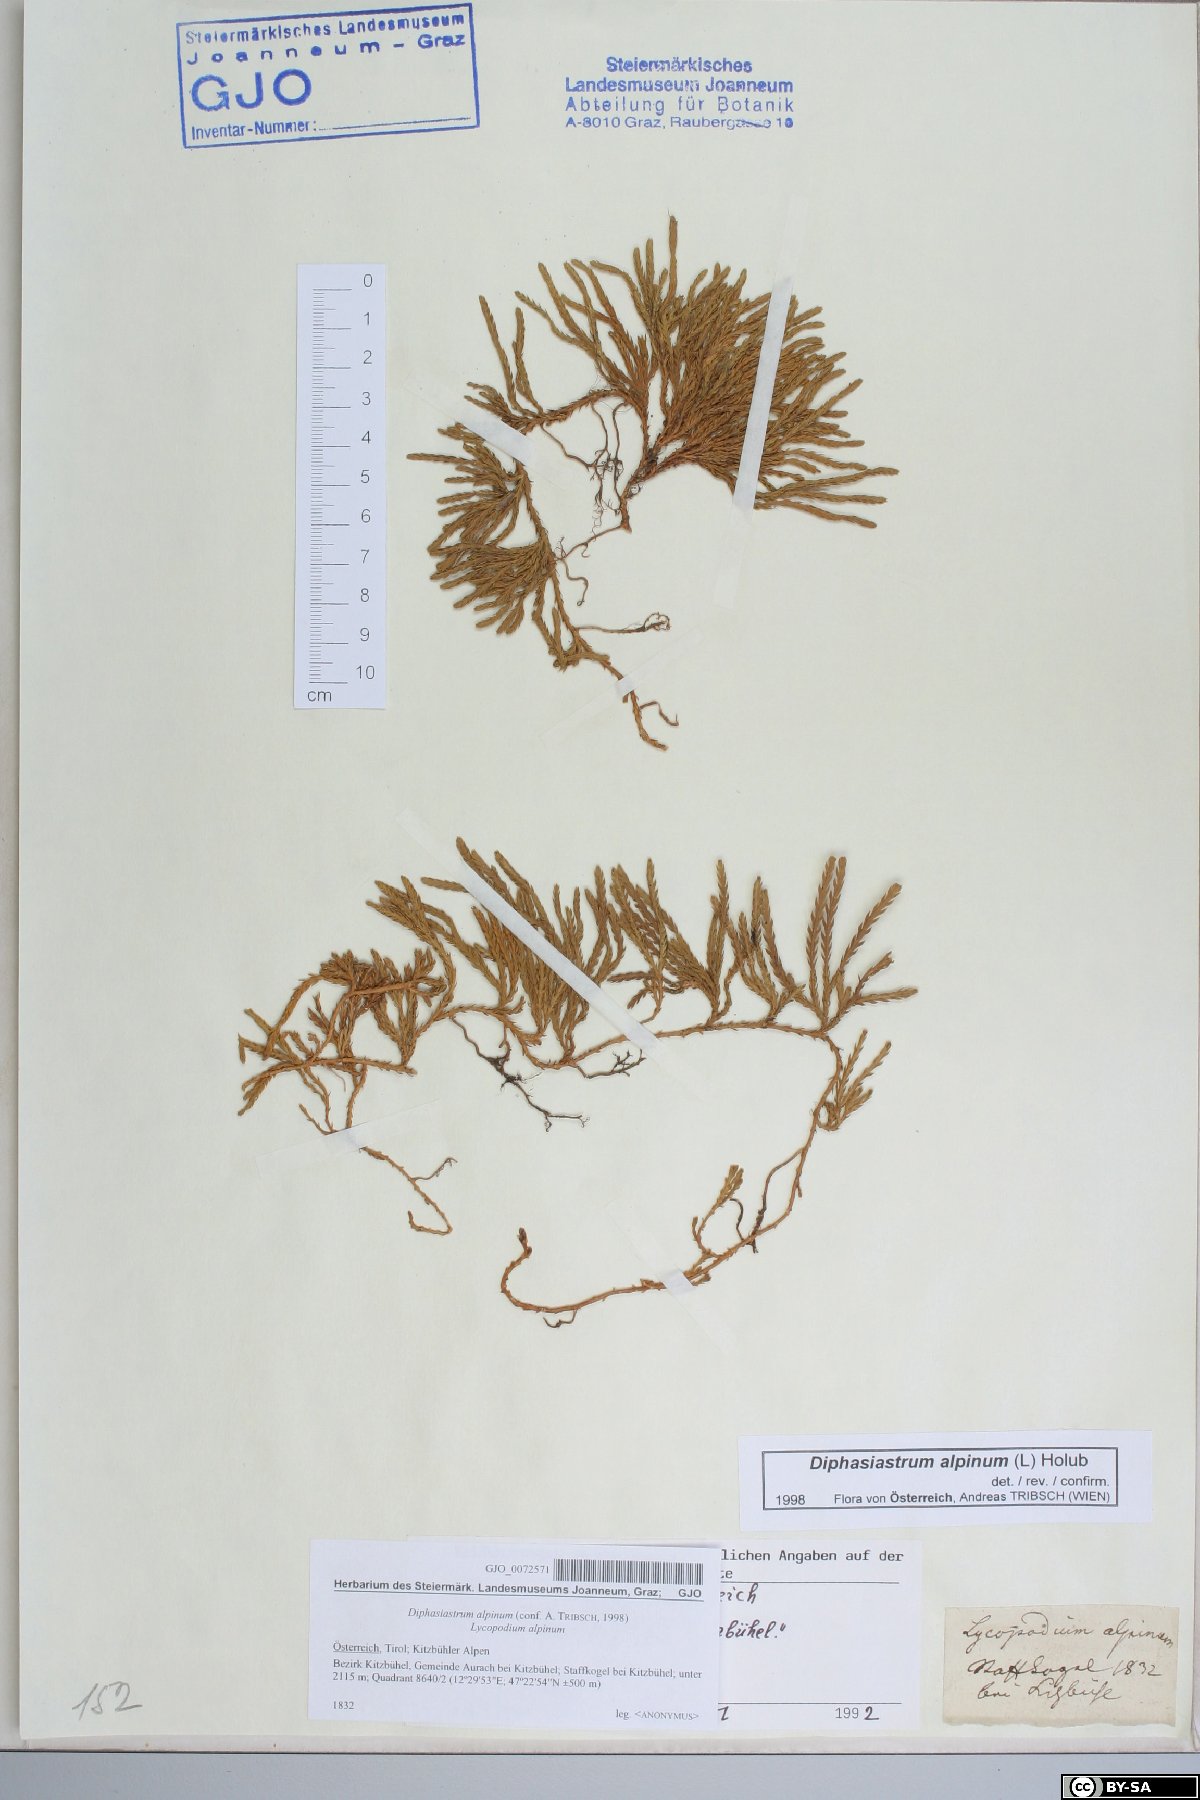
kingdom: Plantae
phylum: Tracheophyta
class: Lycopodiopsida
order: Lycopodiales
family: Lycopodiaceae
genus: Diphasiastrum
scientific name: Diphasiastrum alpinum
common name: Alpine clubmoss
